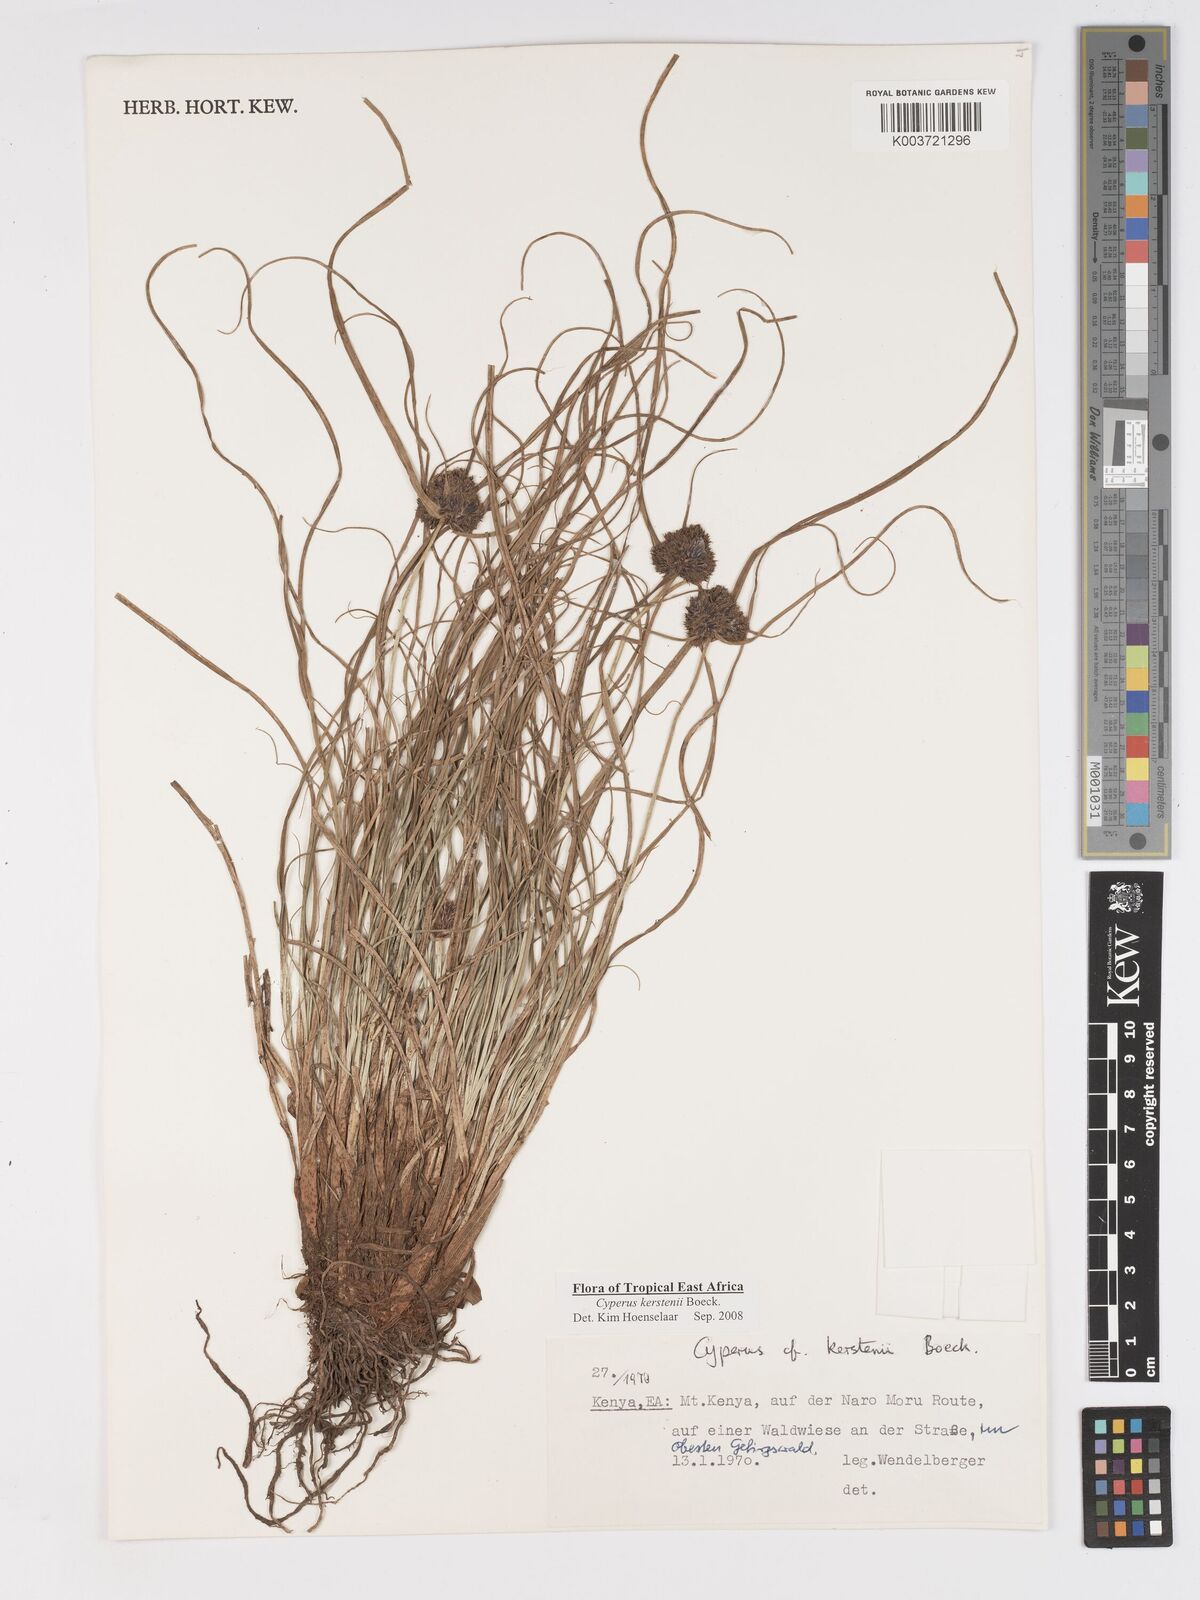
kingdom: Plantae
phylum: Tracheophyta
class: Liliopsida
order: Poales
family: Cyperaceae
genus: Cyperus
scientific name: Cyperus kerstenii
